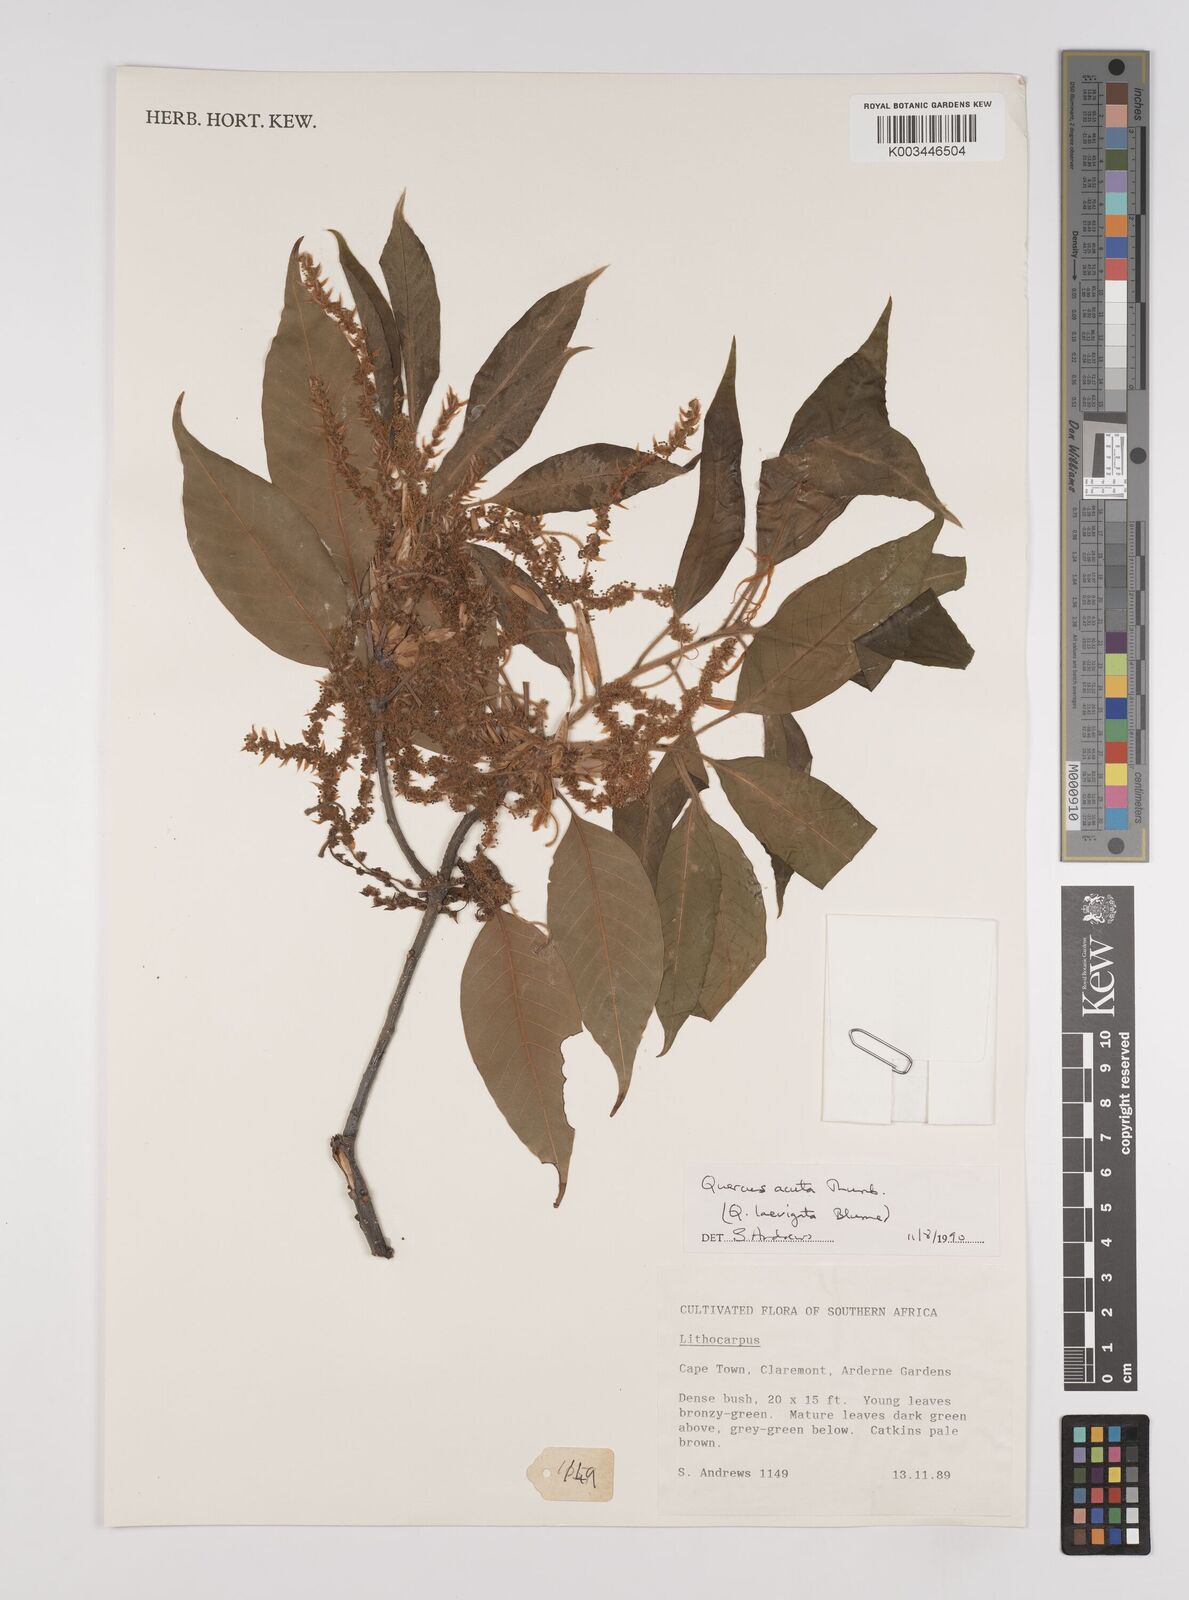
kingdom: Plantae
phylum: Tracheophyta
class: Magnoliopsida
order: Fagales
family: Fagaceae
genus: Quercus
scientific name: Quercus coccinea
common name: Scarlet oak
